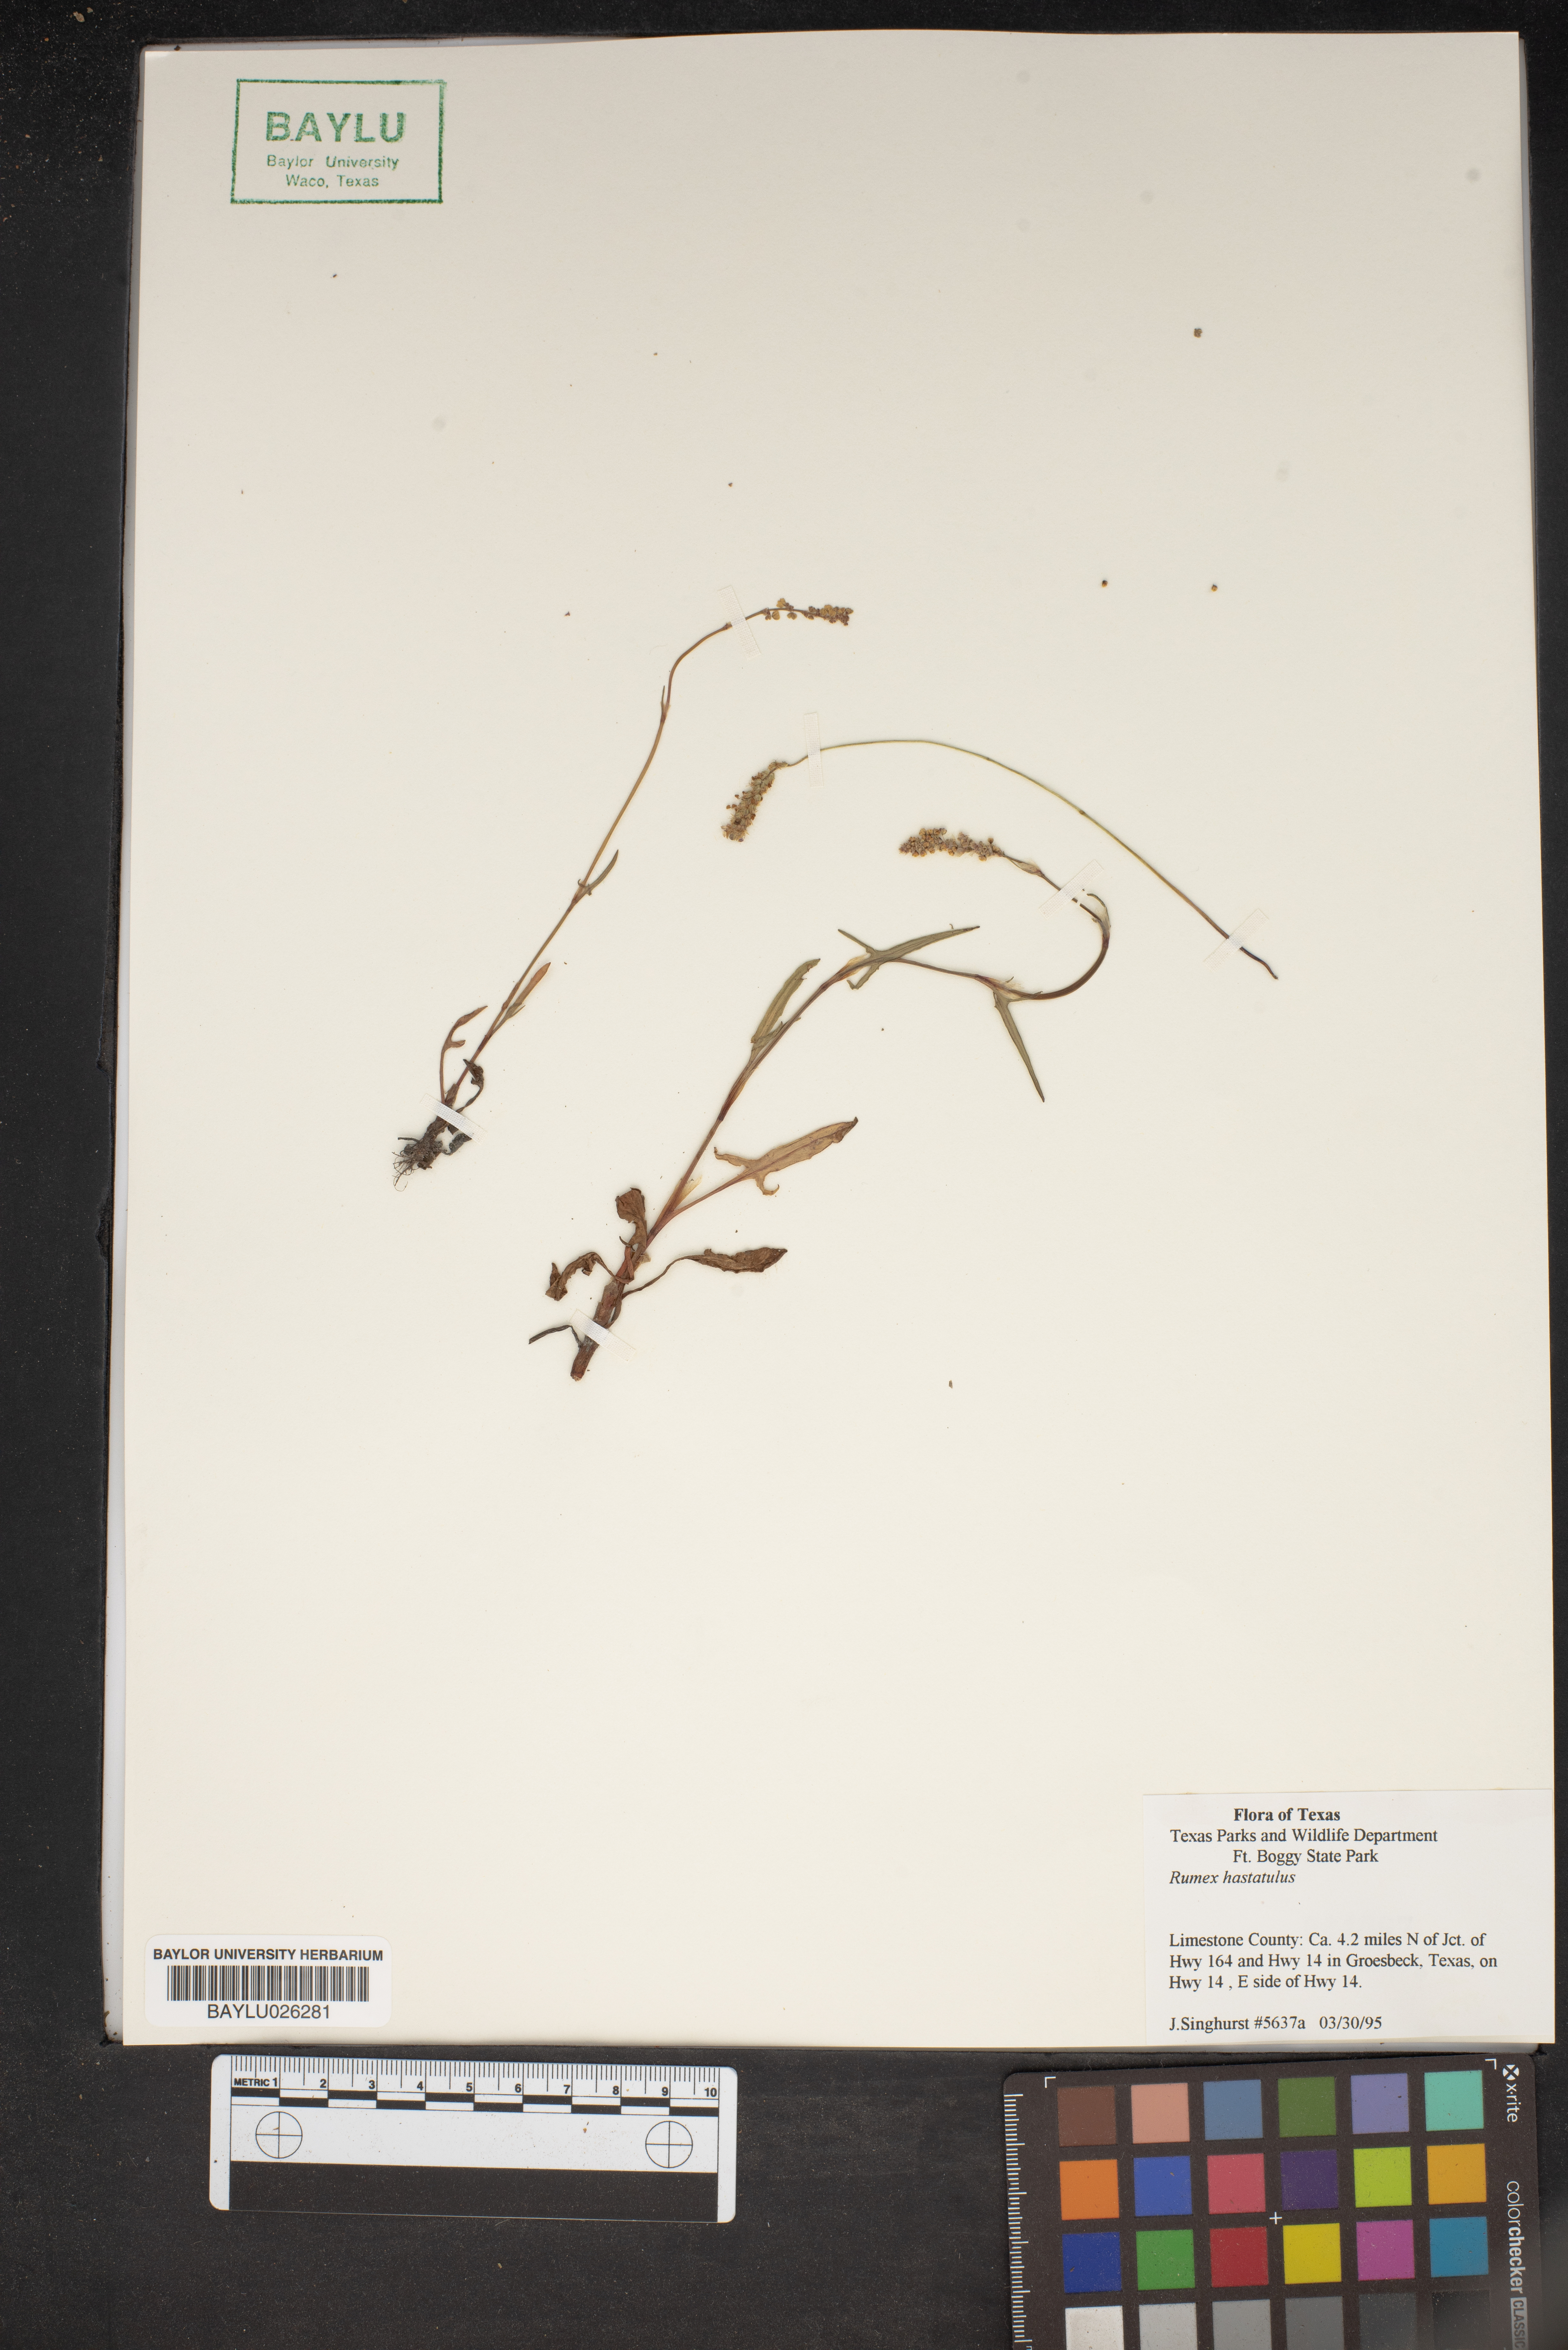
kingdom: Plantae
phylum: Tracheophyta
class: Magnoliopsida
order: Caryophyllales
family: Polygonaceae
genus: Rumex
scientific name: Rumex hastatulus
